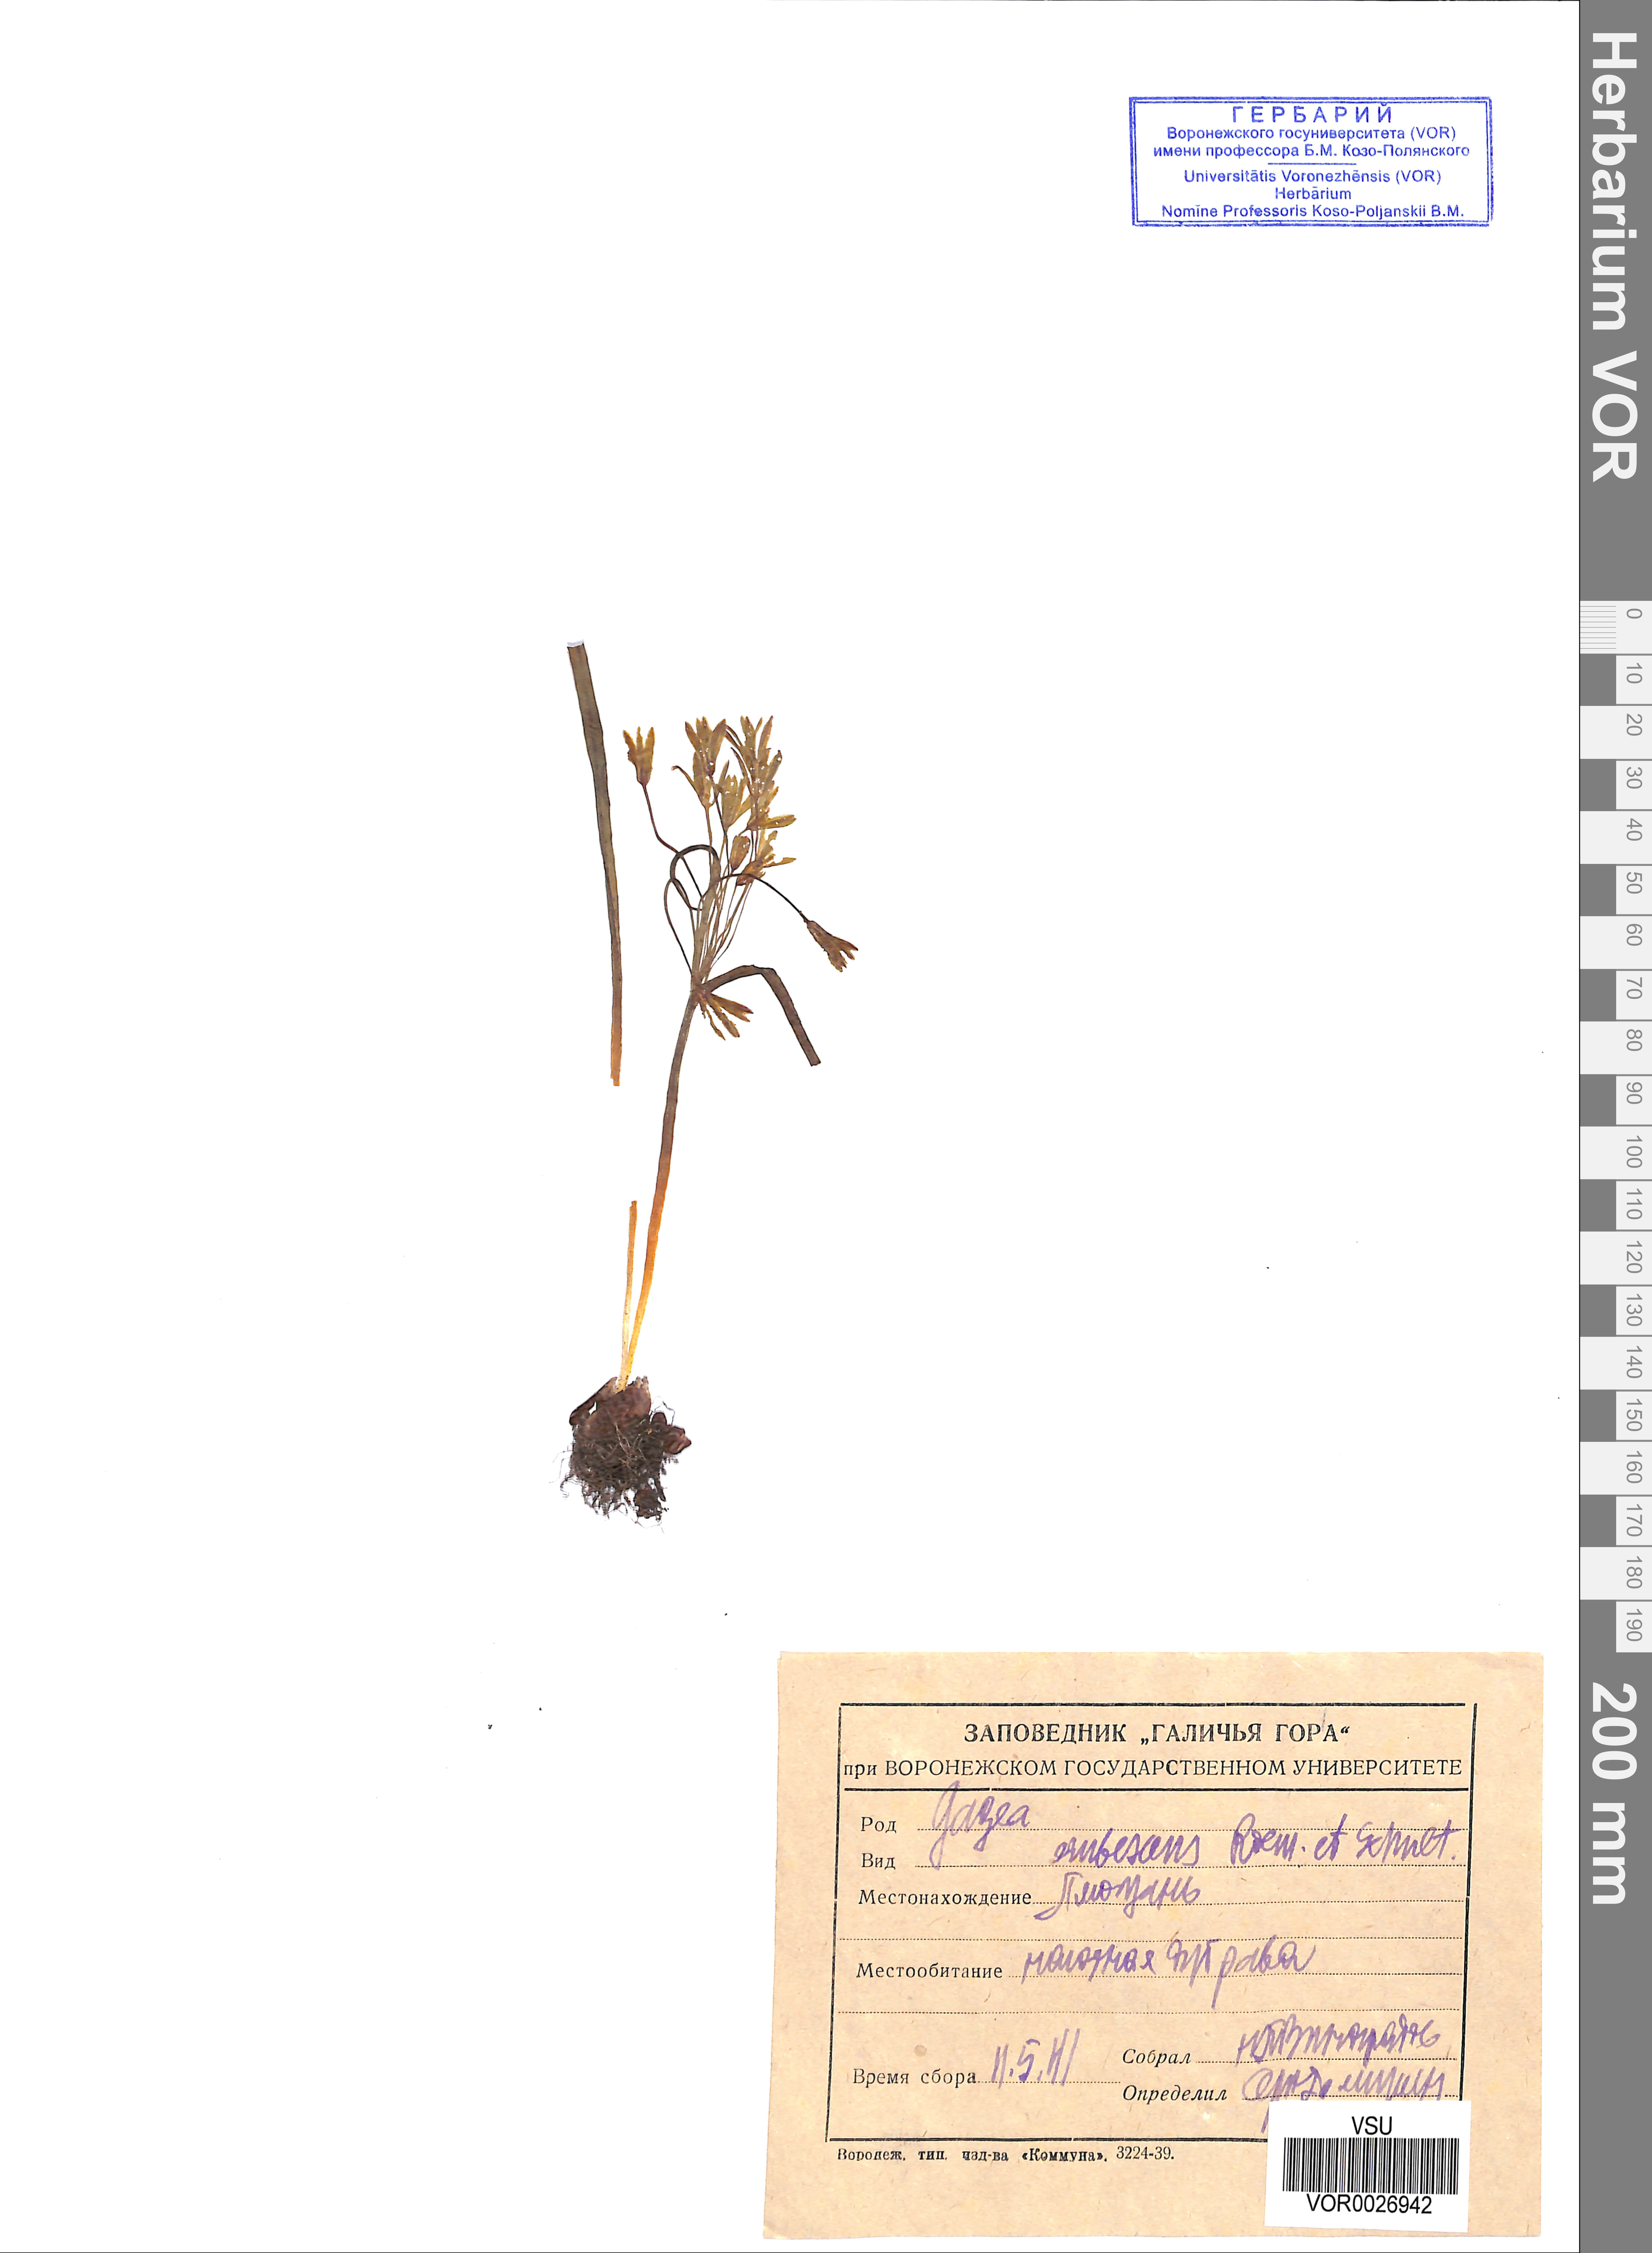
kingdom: Plantae
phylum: Tracheophyta
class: Liliopsida
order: Liliales
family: Liliaceae
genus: Gagea
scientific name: Gagea fragifera
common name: Lily
